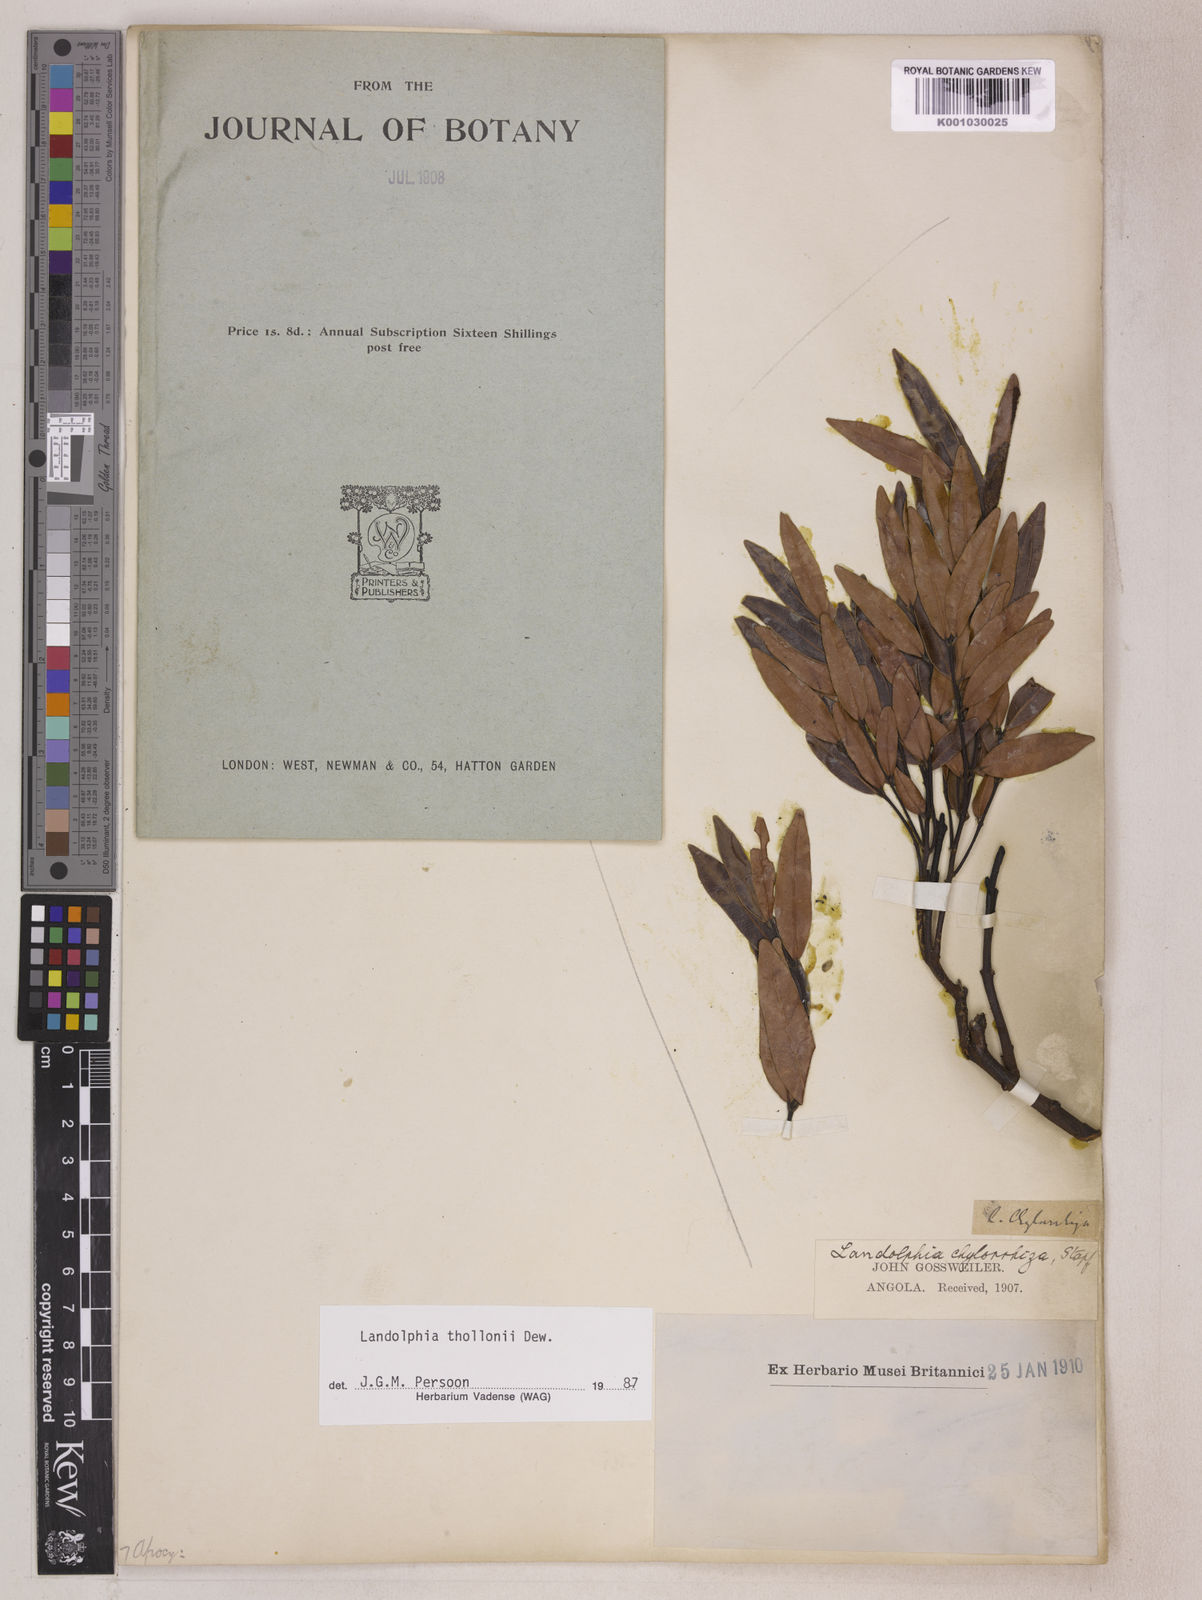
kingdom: Plantae
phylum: Tracheophyta
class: Magnoliopsida
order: Gentianales
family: Apocynaceae
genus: Landolphia
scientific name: Landolphia
